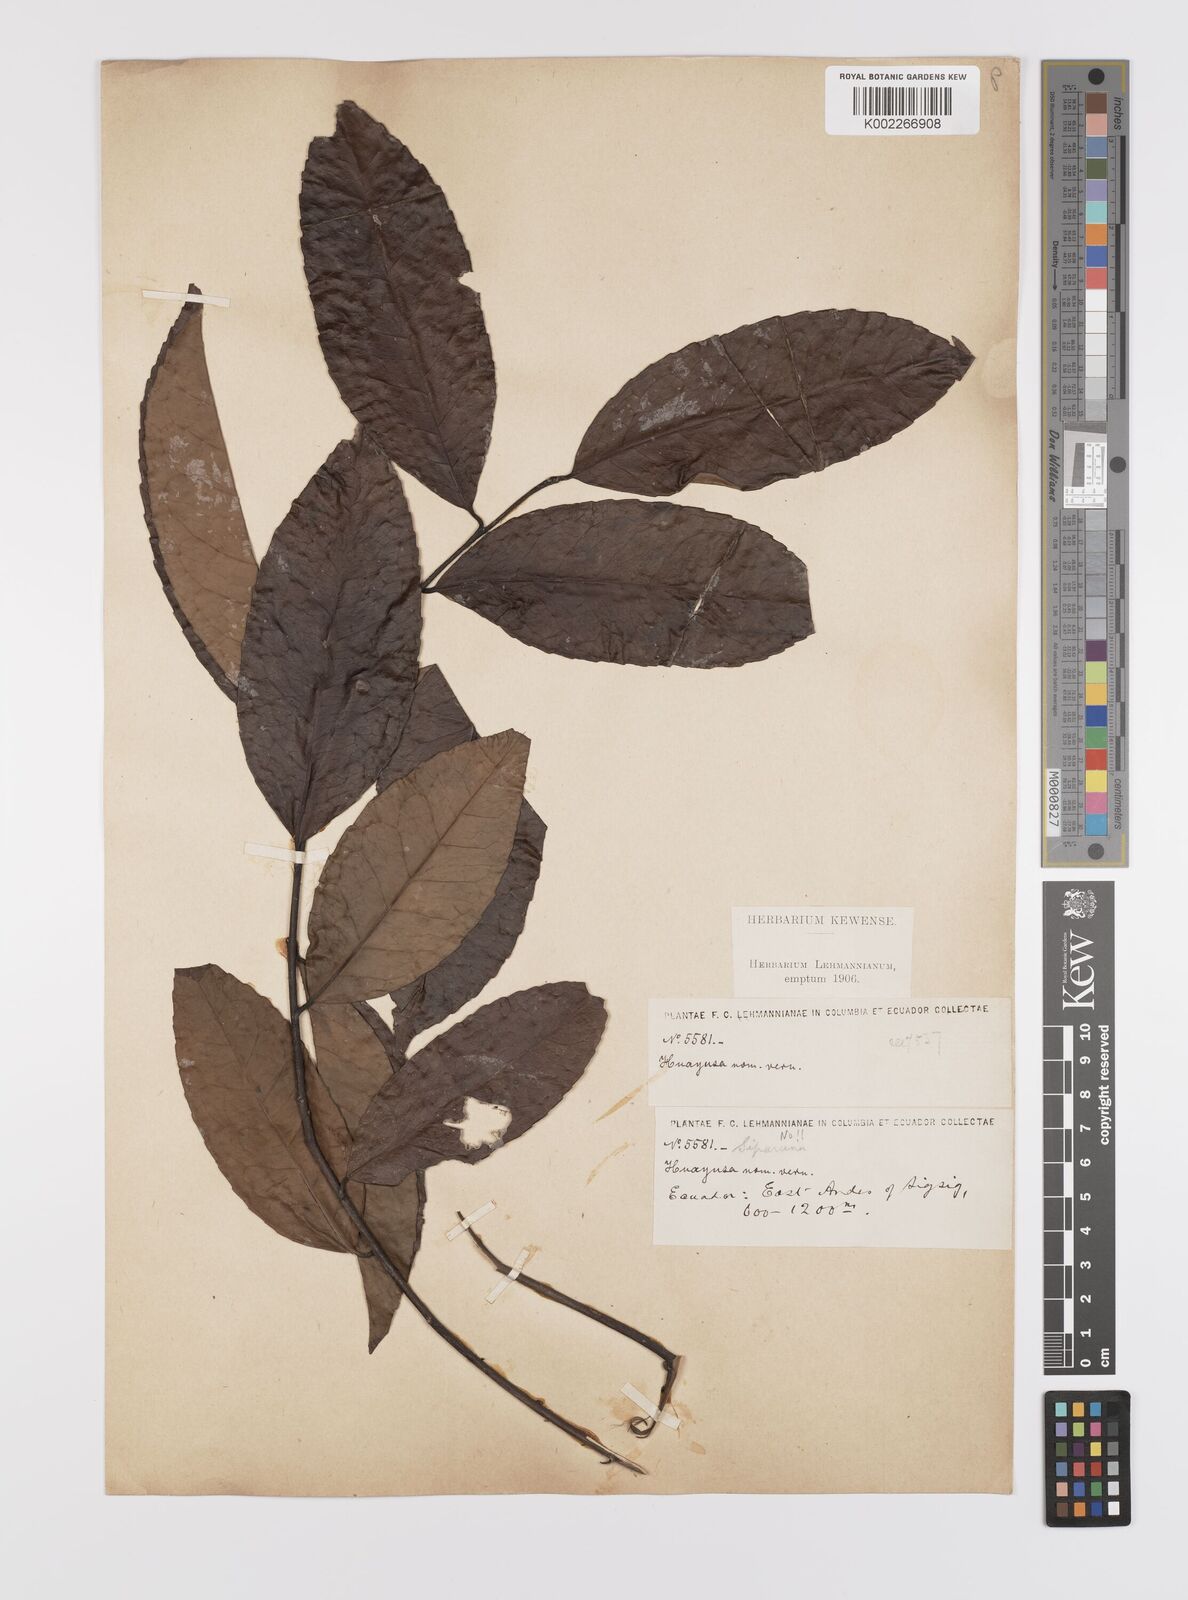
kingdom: Plantae
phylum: Tracheophyta
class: Magnoliopsida
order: Celastrales
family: Celastraceae
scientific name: Celastraceae
